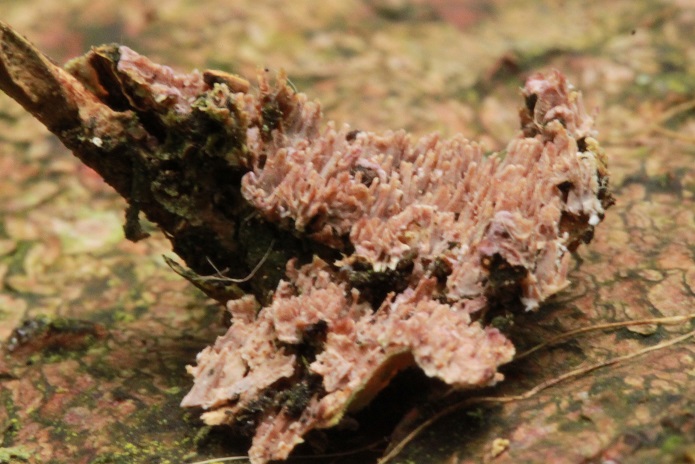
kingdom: Fungi
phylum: Basidiomycota
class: Agaricomycetes
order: Hymenochaetales
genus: Trichaptum
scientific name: Trichaptum fuscoviolaceum
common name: tandet violporesvamp
